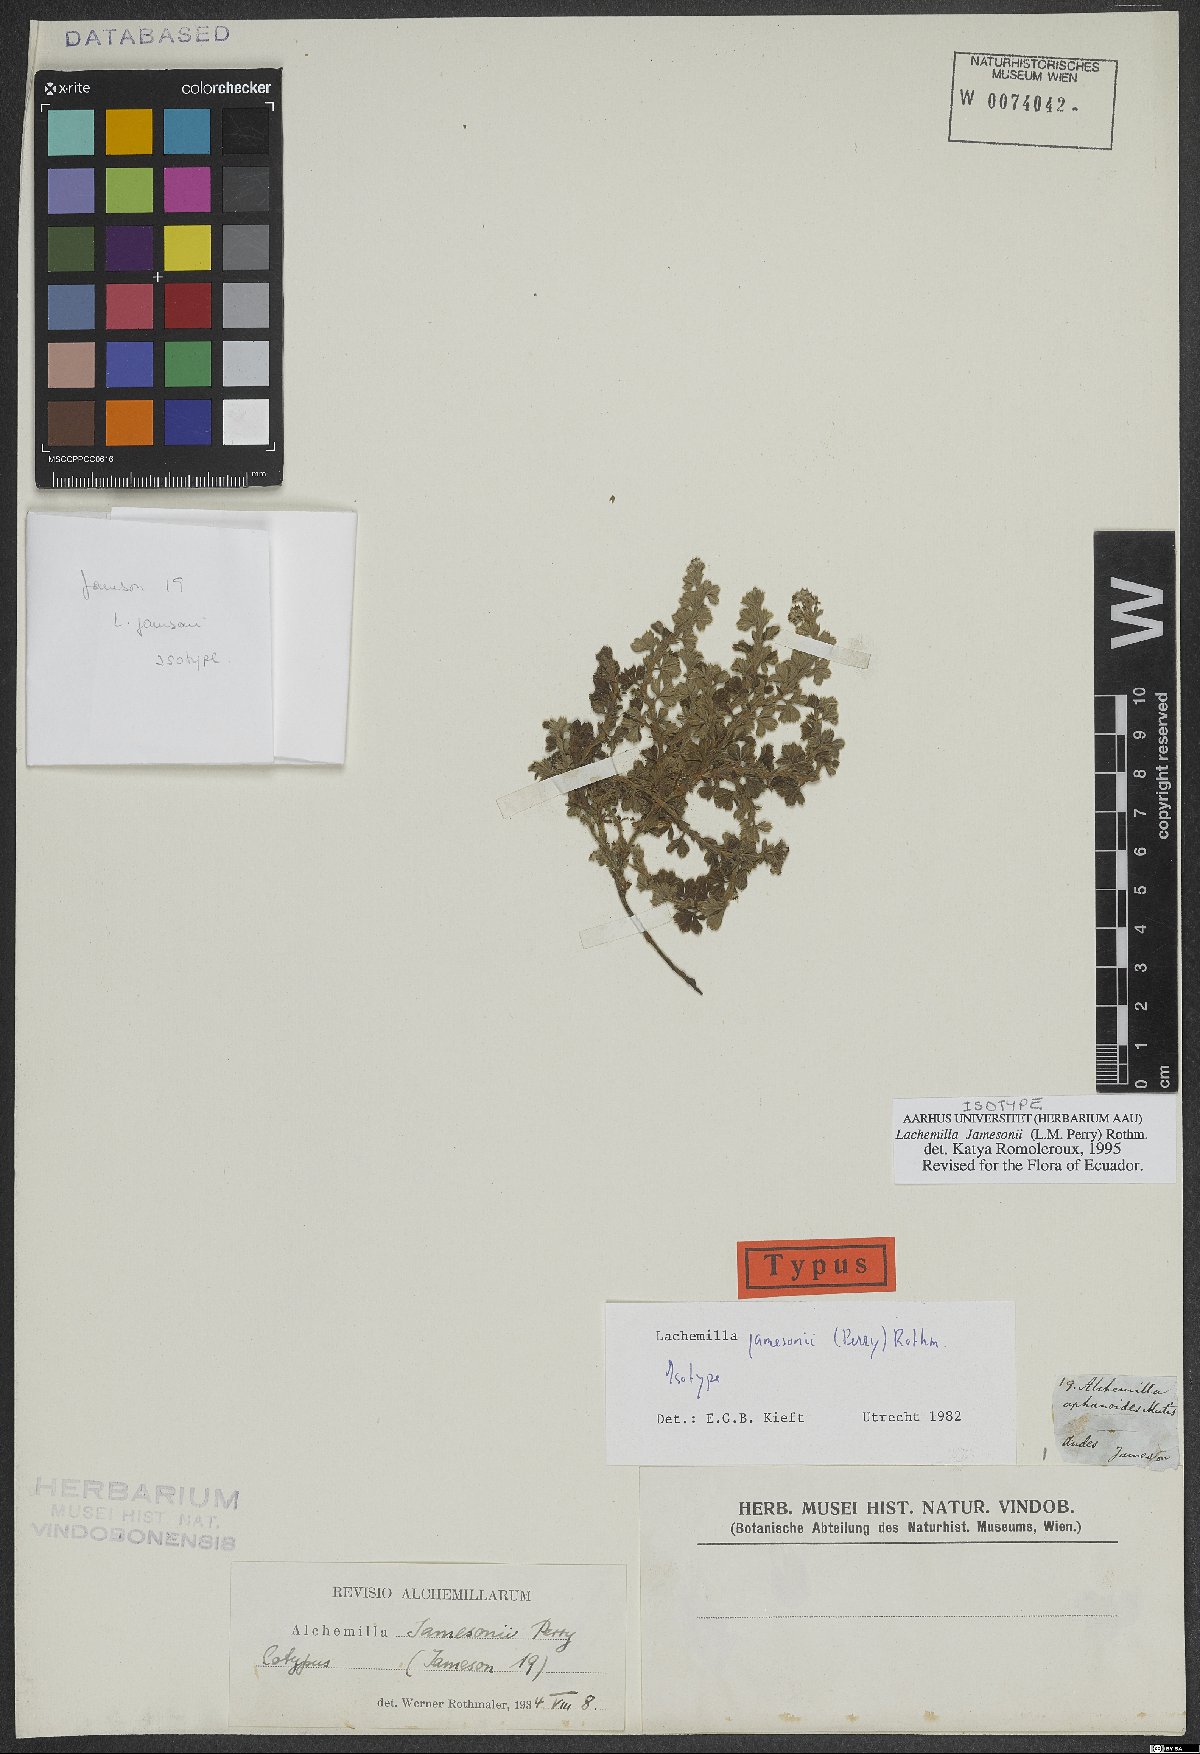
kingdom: Plantae
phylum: Tracheophyta
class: Magnoliopsida
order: Rosales
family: Rosaceae
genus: Lachemilla
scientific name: Lachemilla jamesonii
